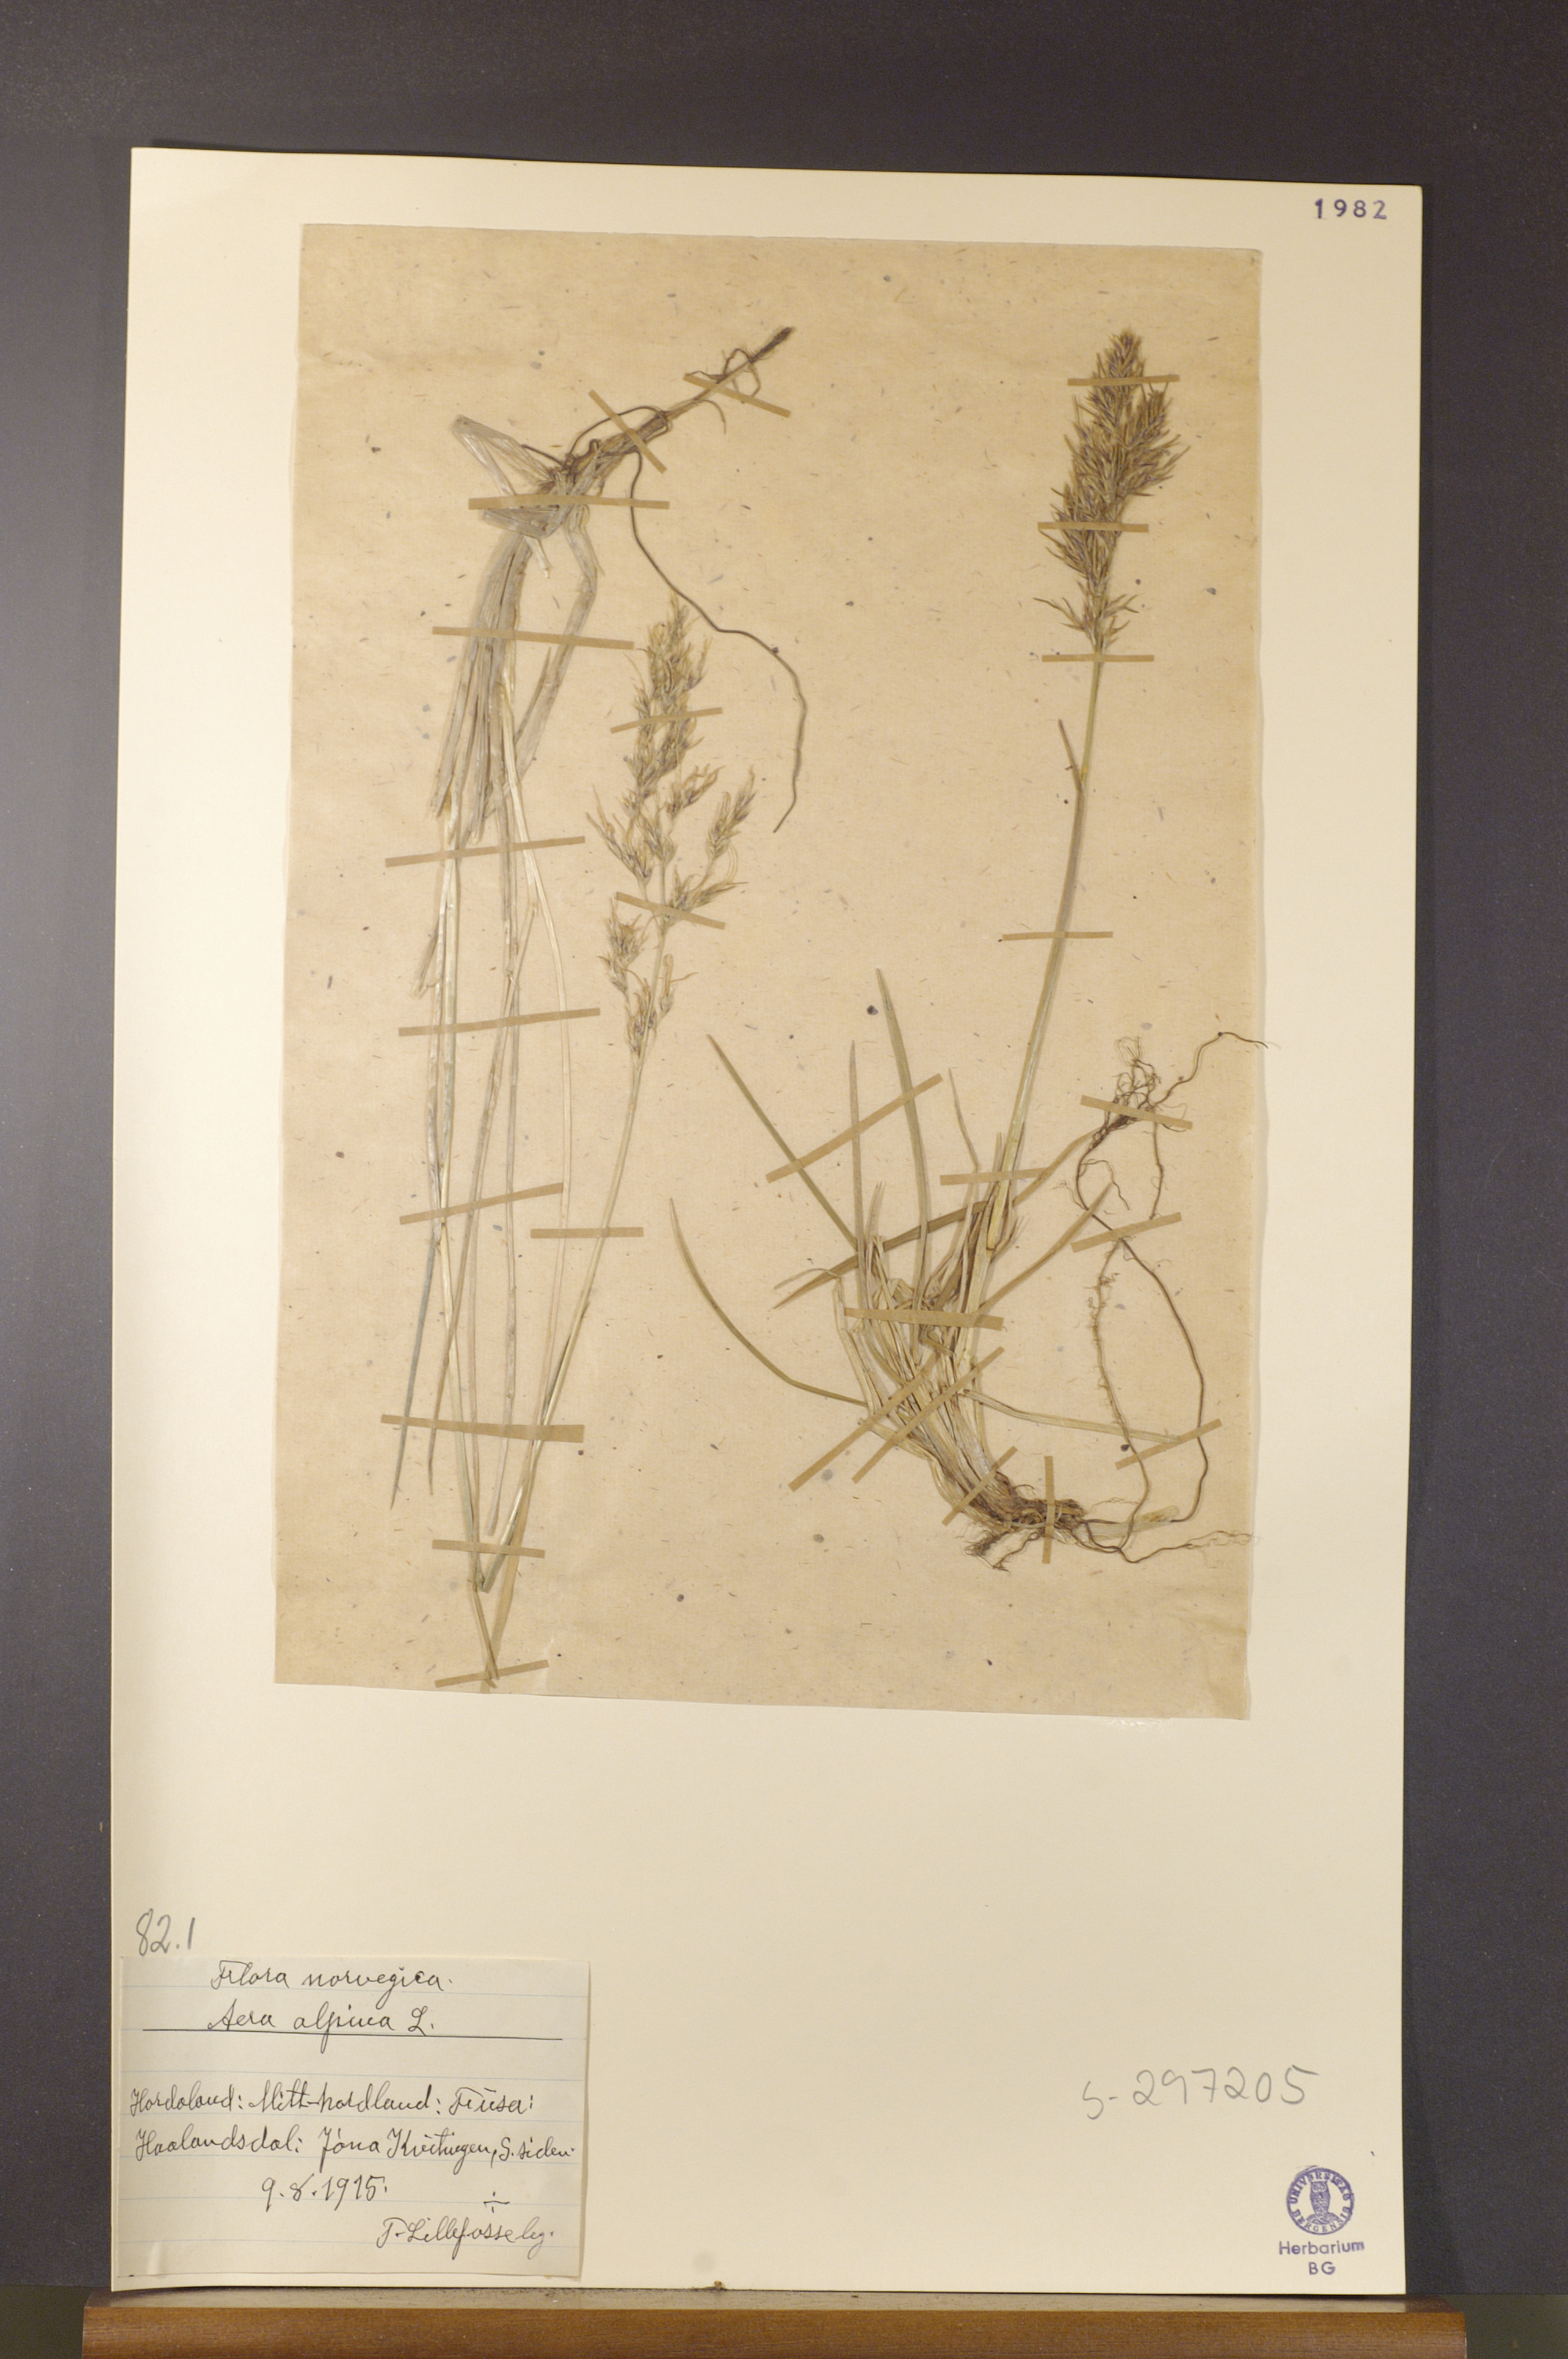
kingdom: Plantae
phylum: Tracheophyta
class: Liliopsida
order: Poales
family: Poaceae
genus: Deschampsia
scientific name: Deschampsia cespitosa
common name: Tufted hair-grass
